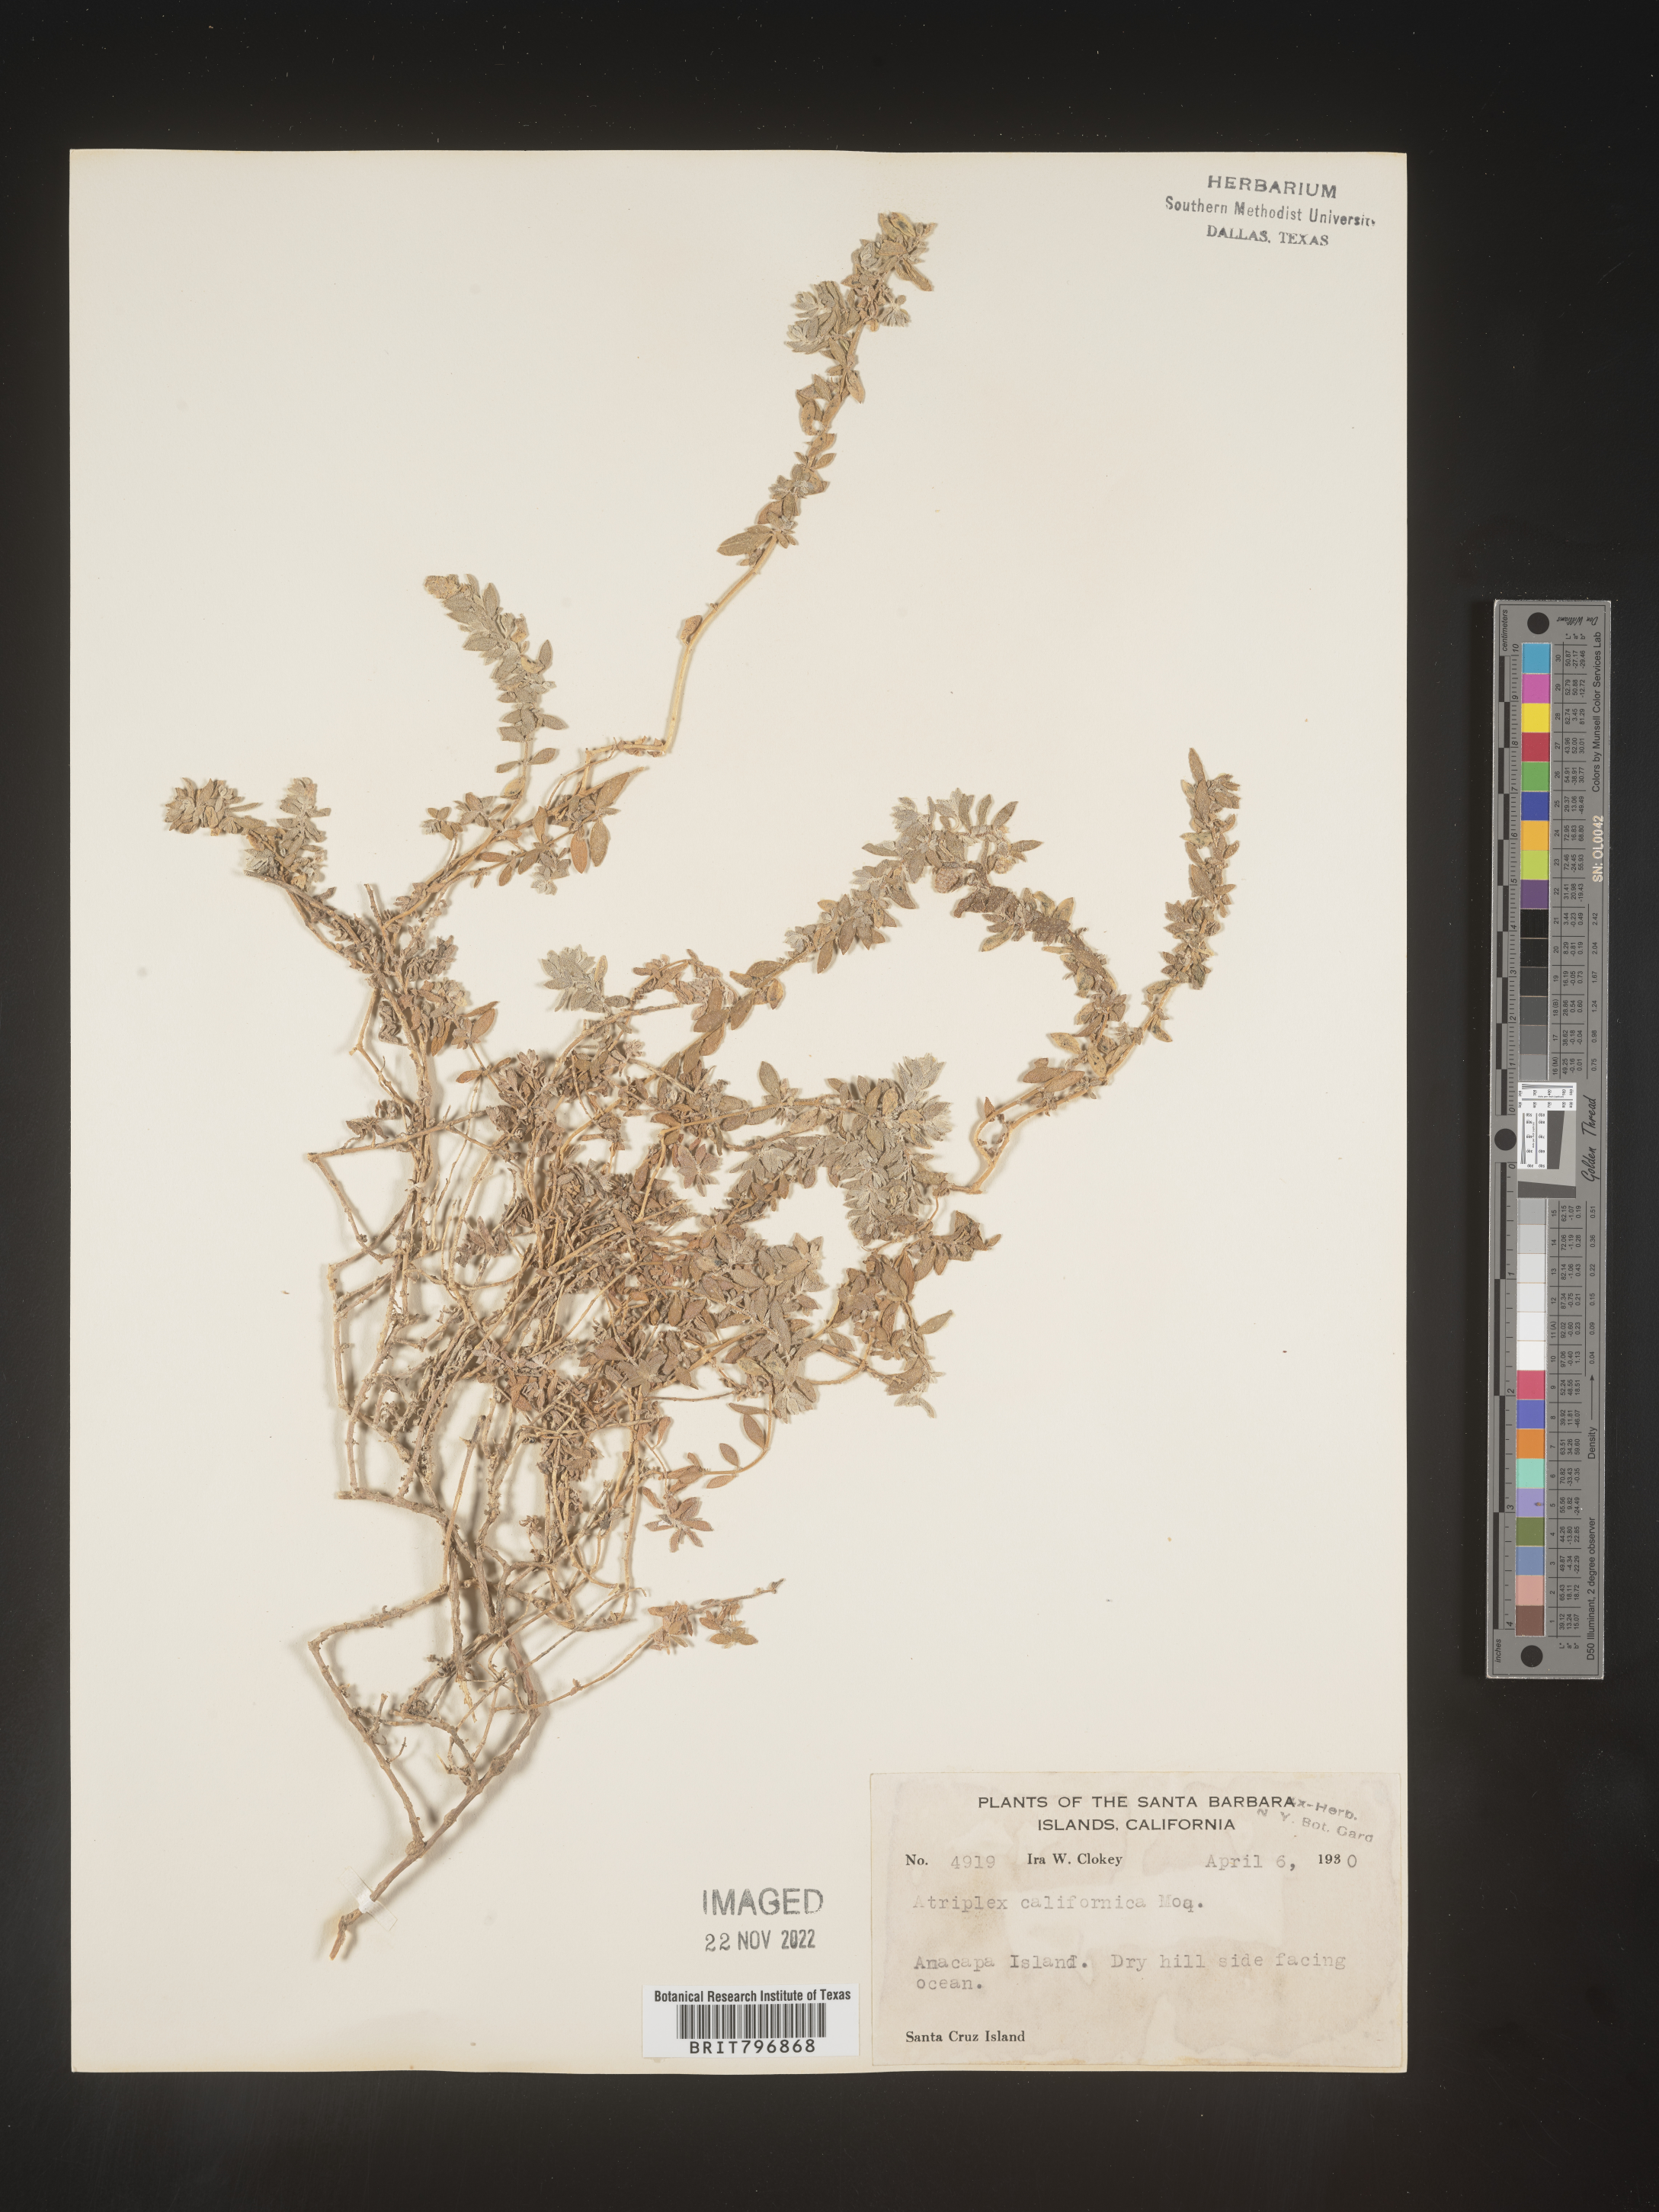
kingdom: Plantae
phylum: Tracheophyta
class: Magnoliopsida
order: Caryophyllales
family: Amaranthaceae
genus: Atriplex
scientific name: Atriplex
